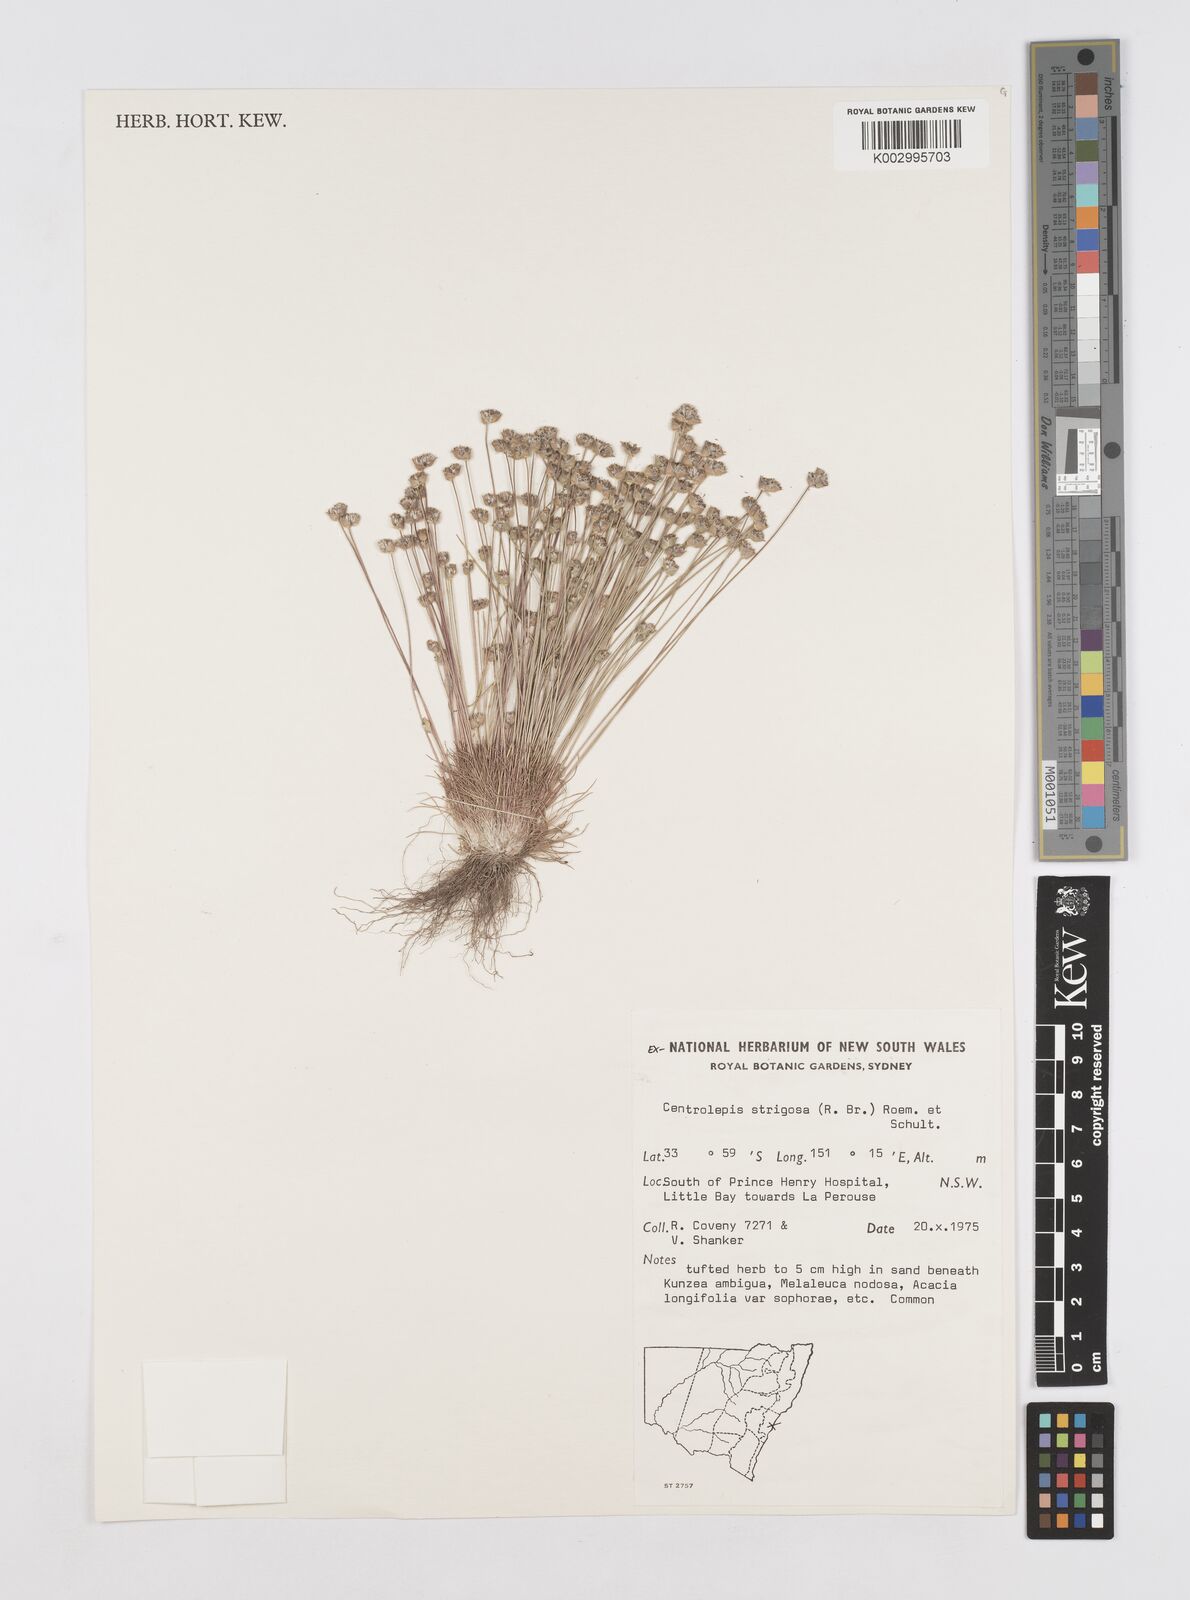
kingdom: Plantae
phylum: Tracheophyta
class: Liliopsida
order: Poales
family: Restionaceae
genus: Centrolepis
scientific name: Centrolepis strigosa
